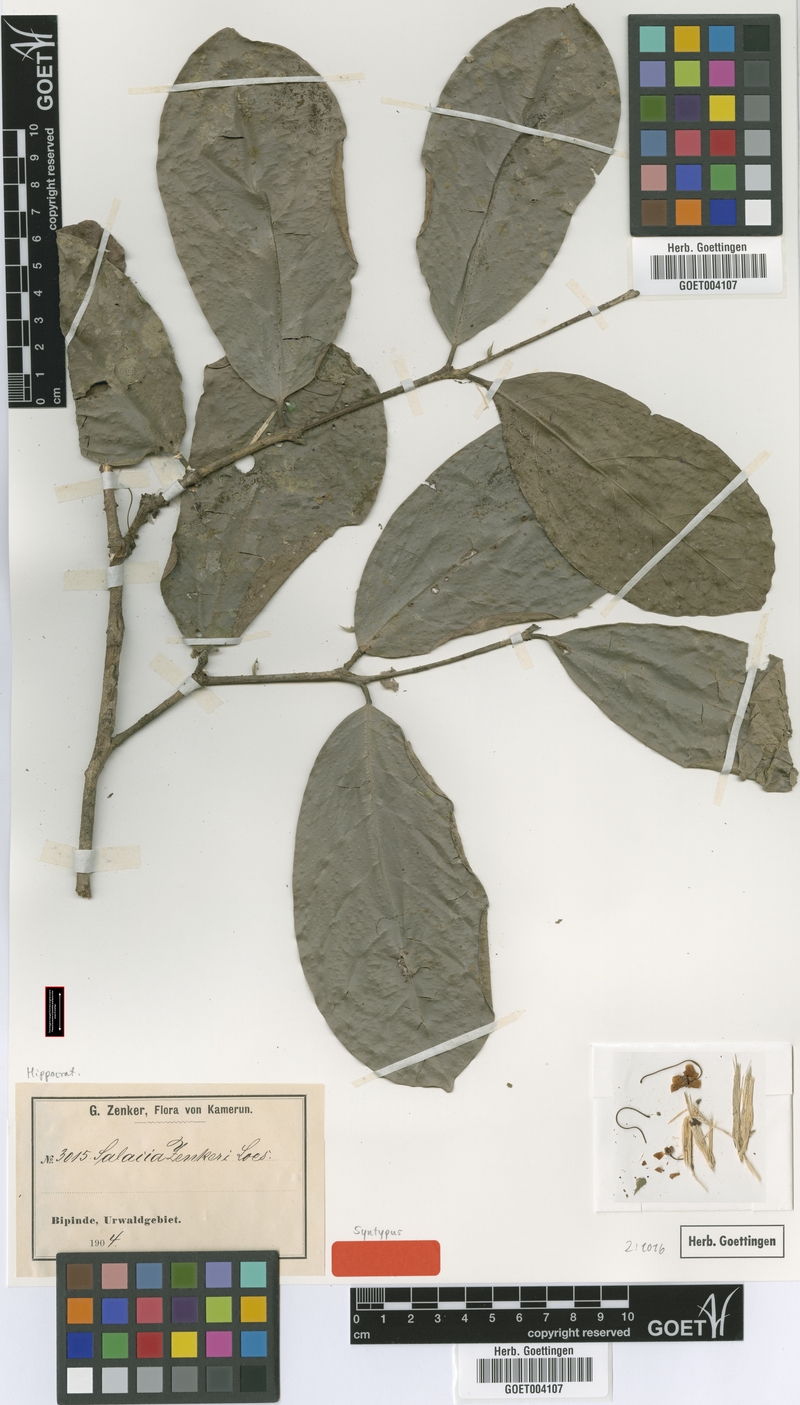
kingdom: Plantae
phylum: Tracheophyta
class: Magnoliopsida
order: Celastrales
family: Celastraceae
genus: Salacia
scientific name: Salacia zenkeri
